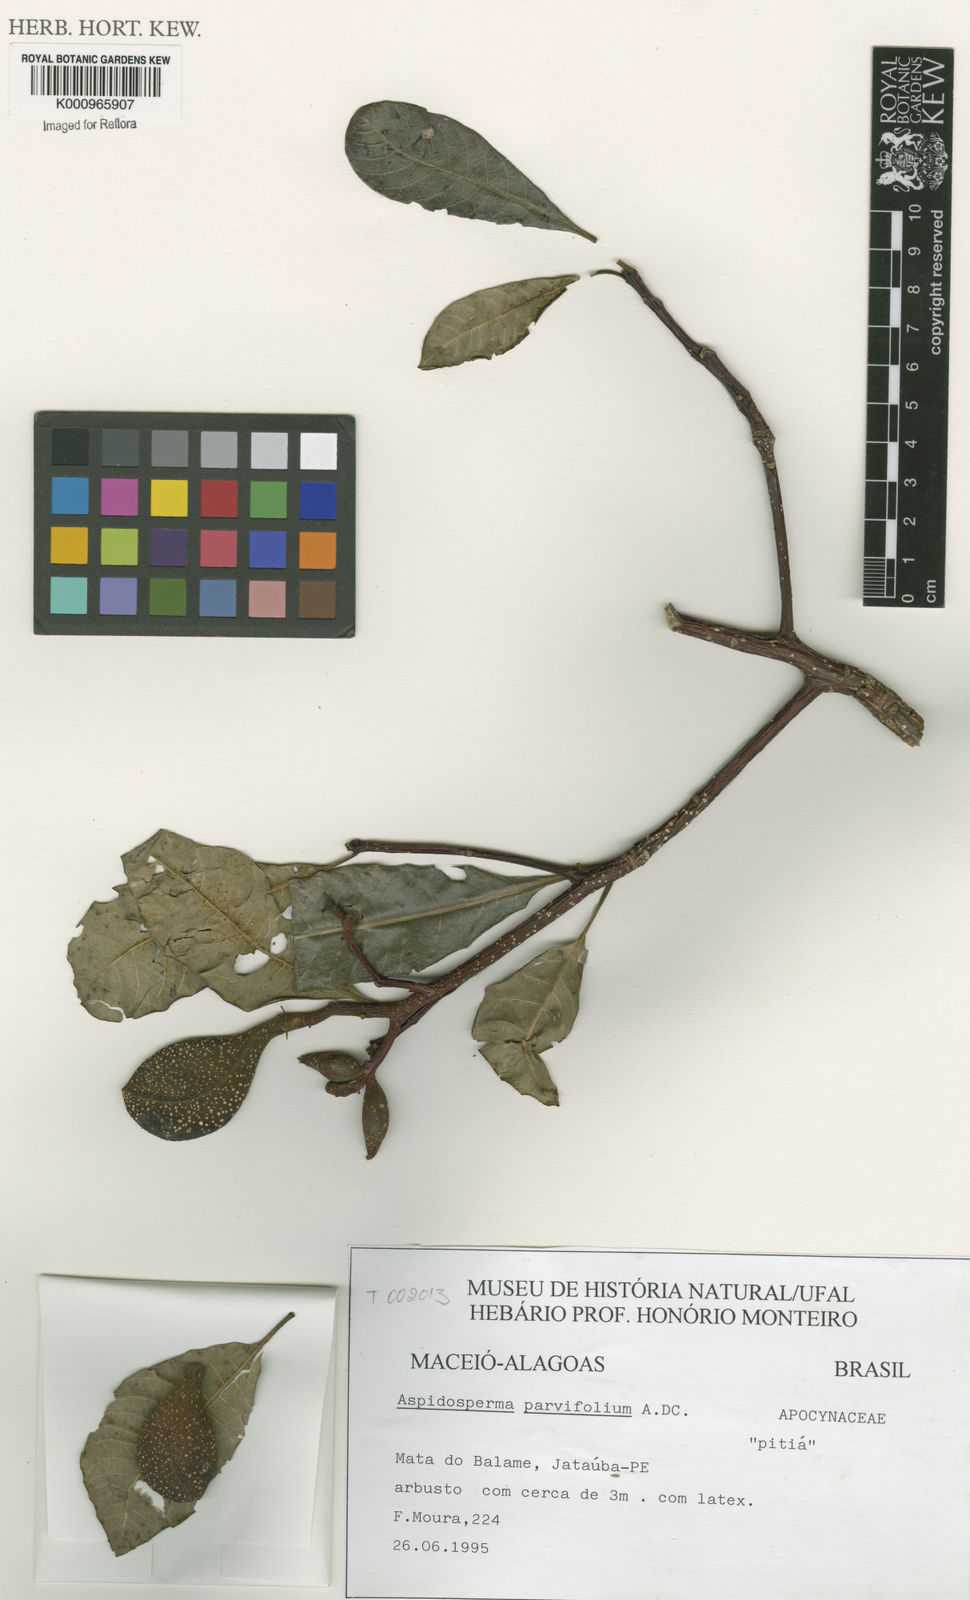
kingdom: Plantae
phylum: Tracheophyta
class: Magnoliopsida
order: Gentianales
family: Apocynaceae
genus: Aspidosperma
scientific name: Aspidosperma
